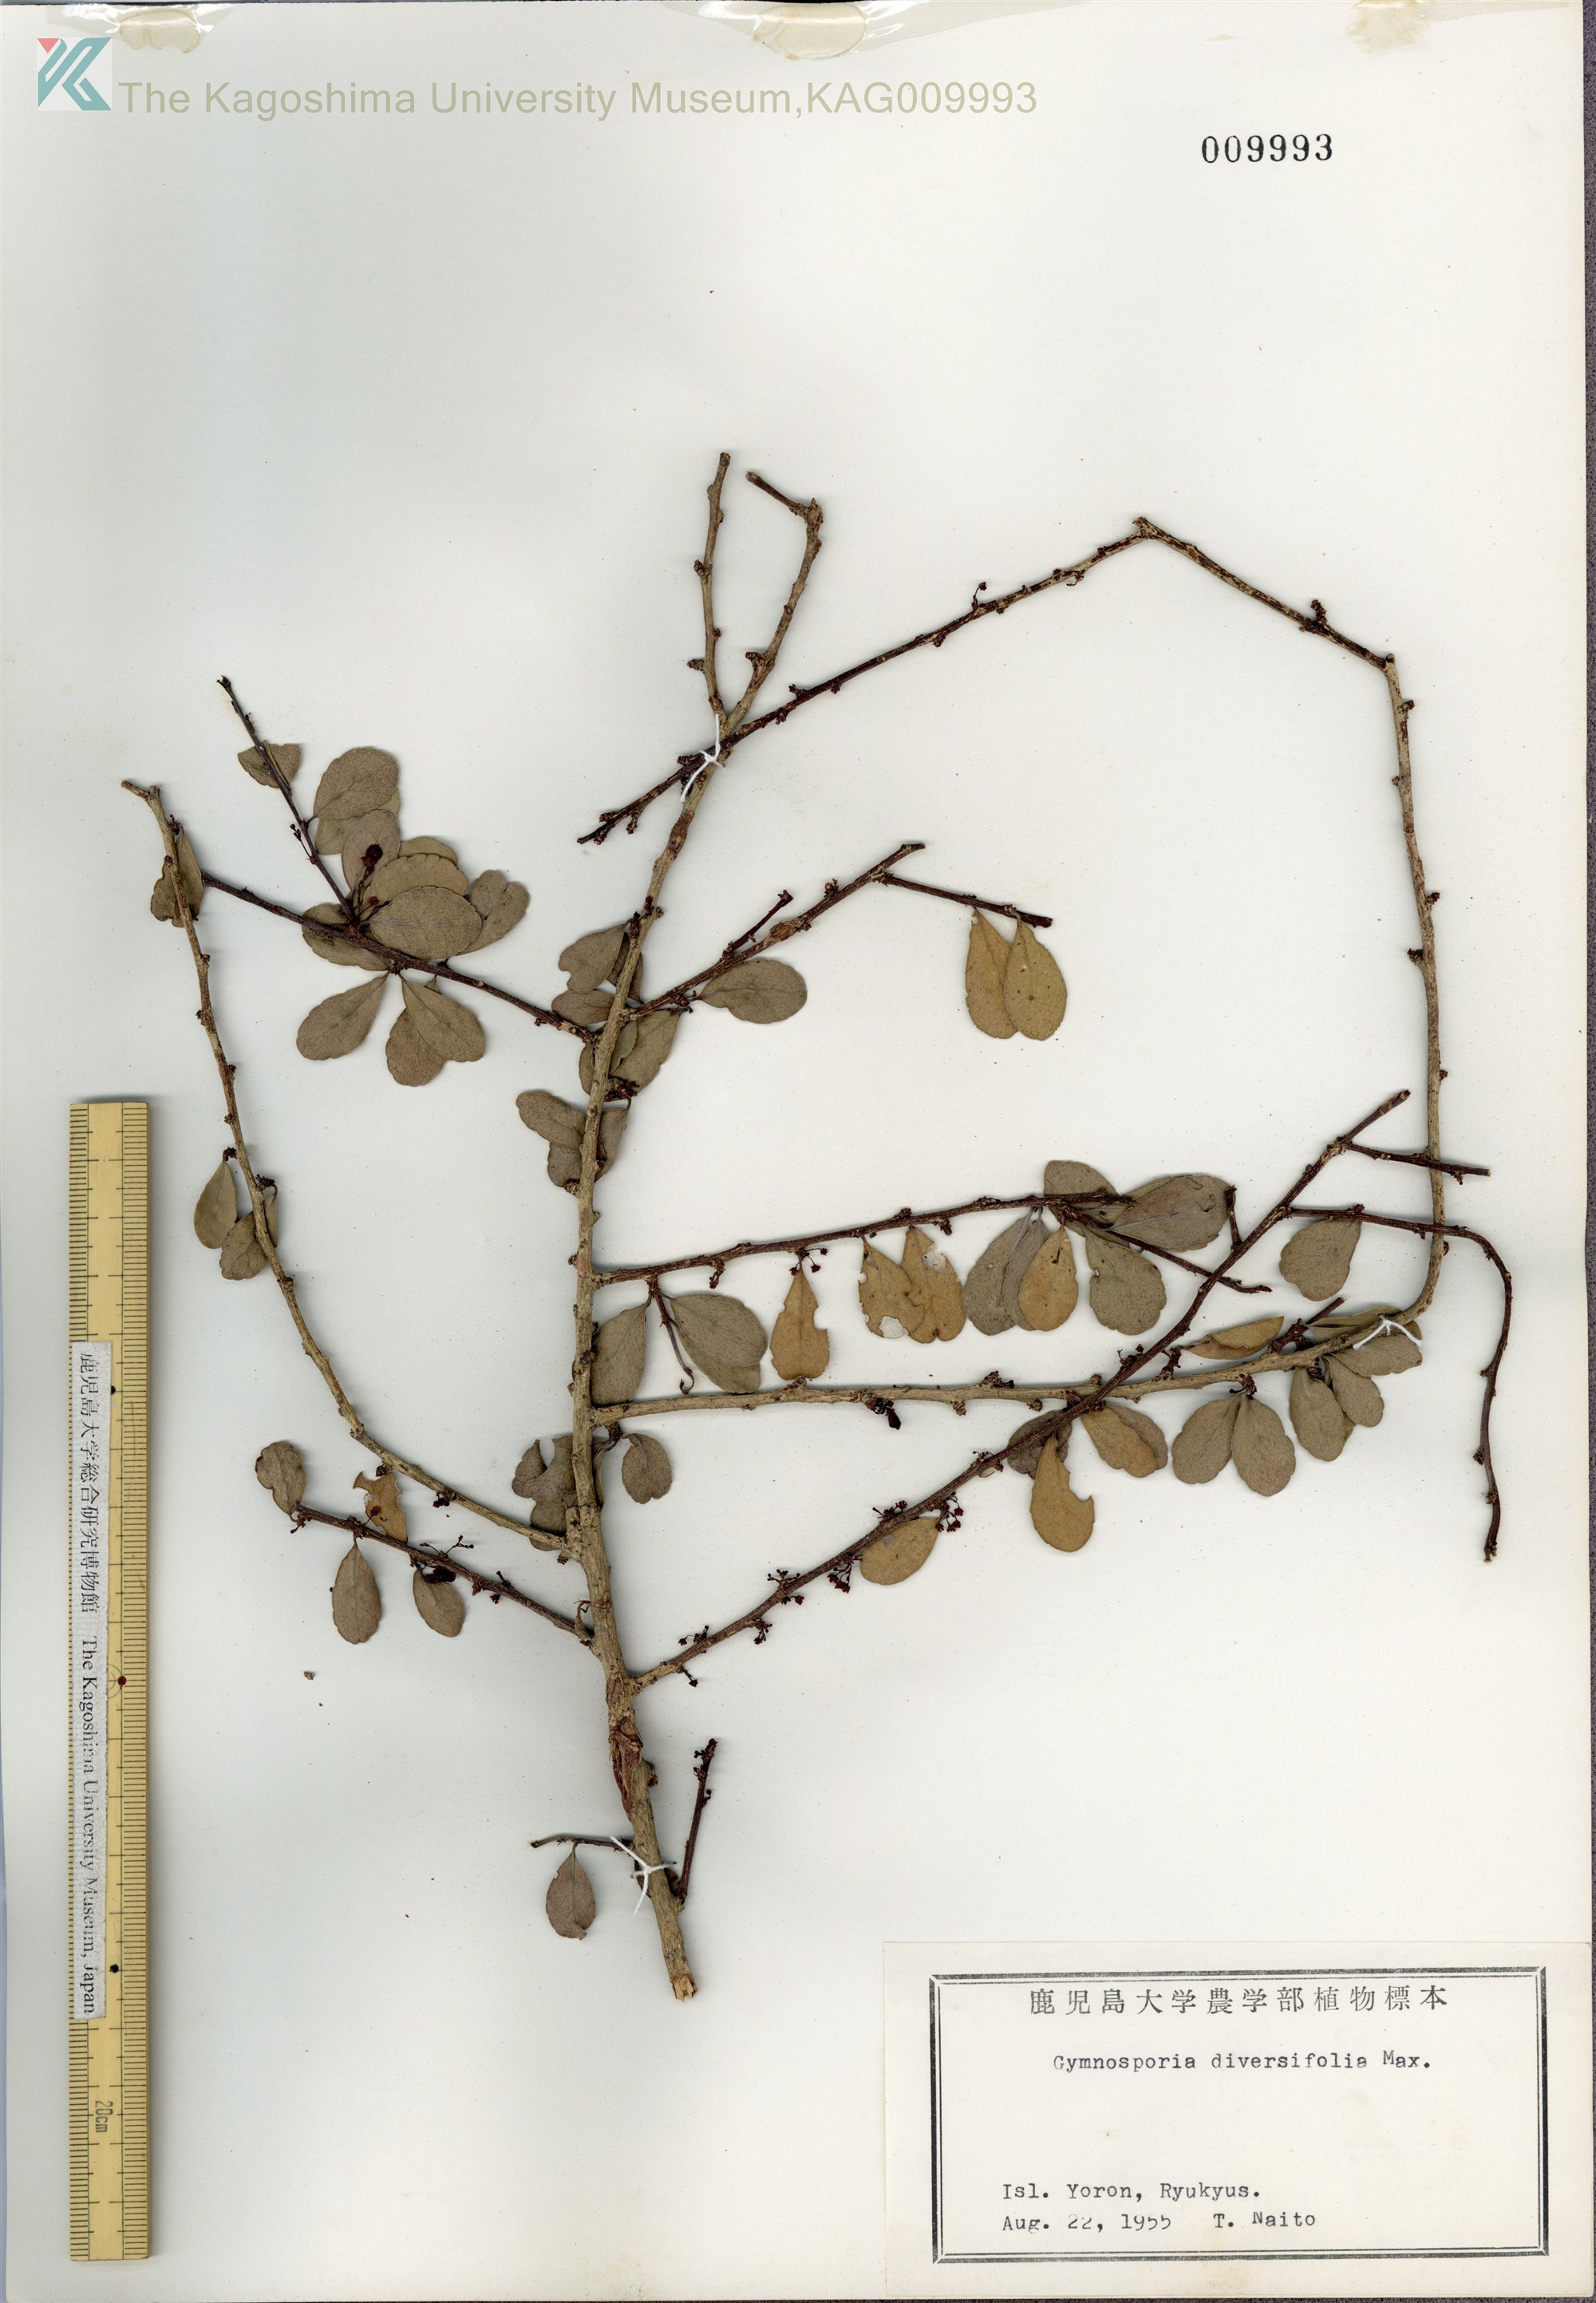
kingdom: Plantae
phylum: Tracheophyta
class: Magnoliopsida
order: Celastrales
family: Celastraceae
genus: Gymnosporia
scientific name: Gymnosporia diversifolia
